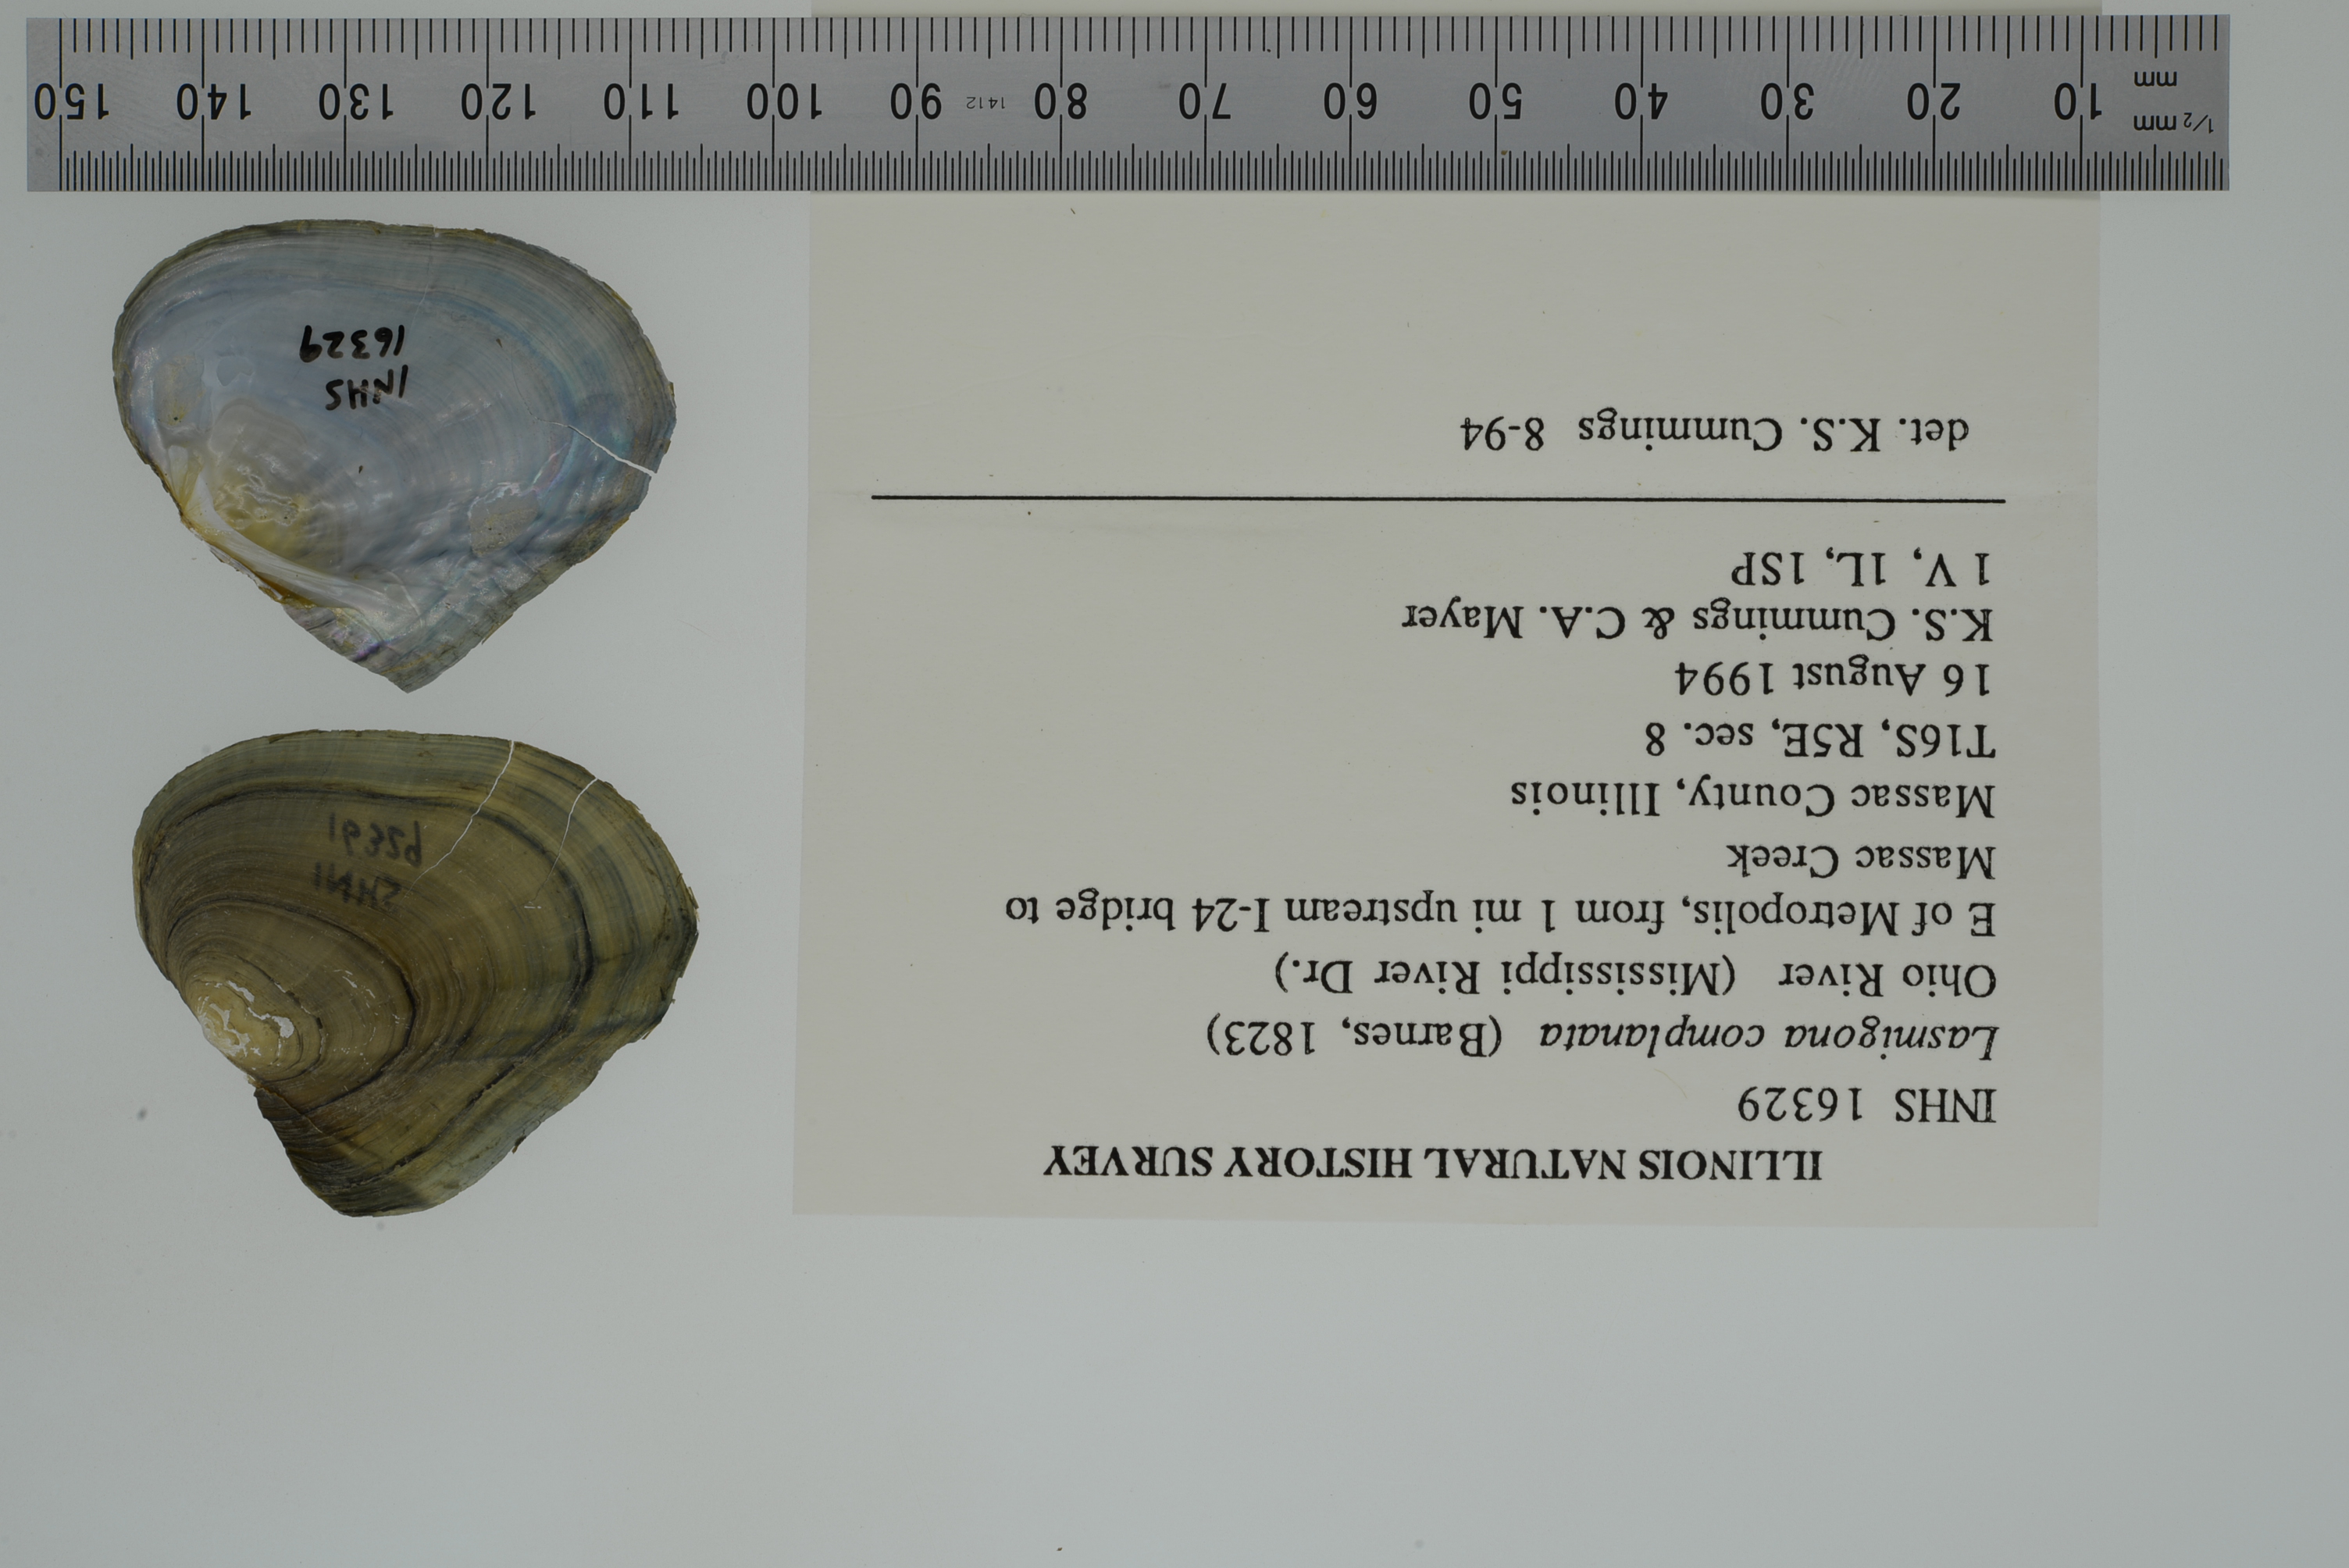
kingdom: Animalia
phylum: Mollusca
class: Bivalvia
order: Unionida
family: Unionidae
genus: Lasmigona
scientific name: Lasmigona complanata
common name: White heelsplitter
